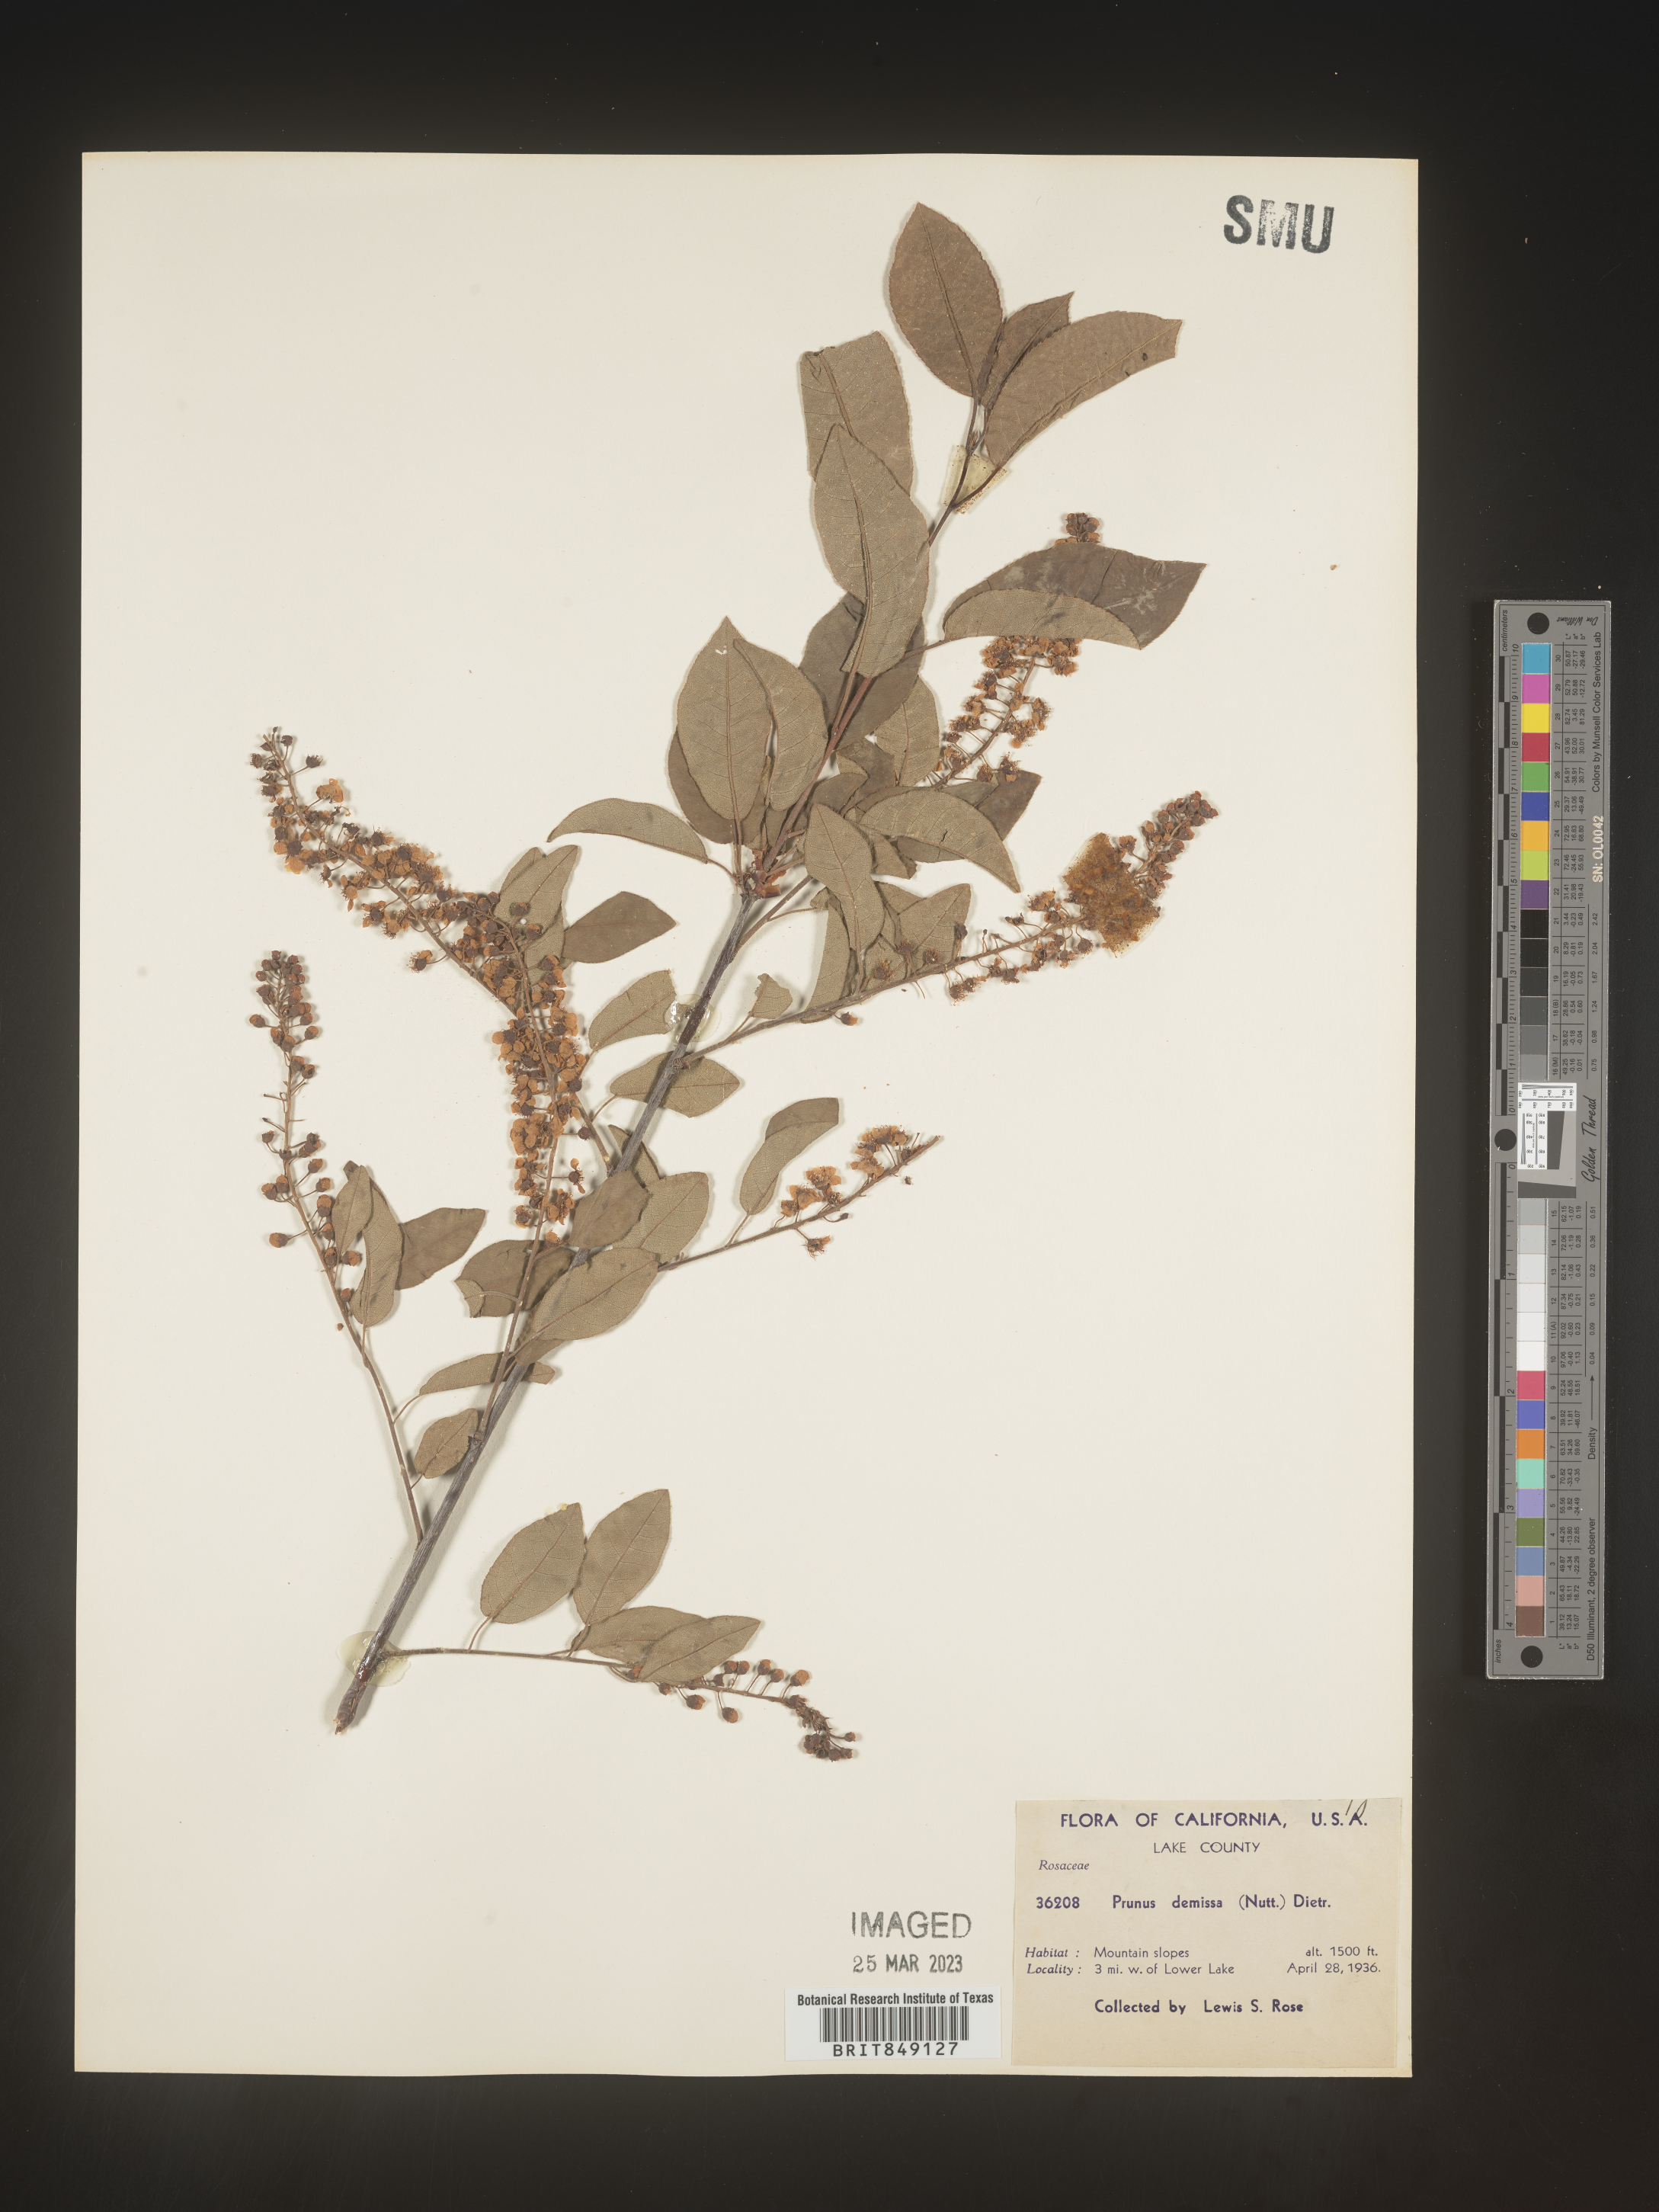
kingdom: Plantae
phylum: Tracheophyta
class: Magnoliopsida
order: Rosales
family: Rosaceae
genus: Prunus
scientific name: Prunus
